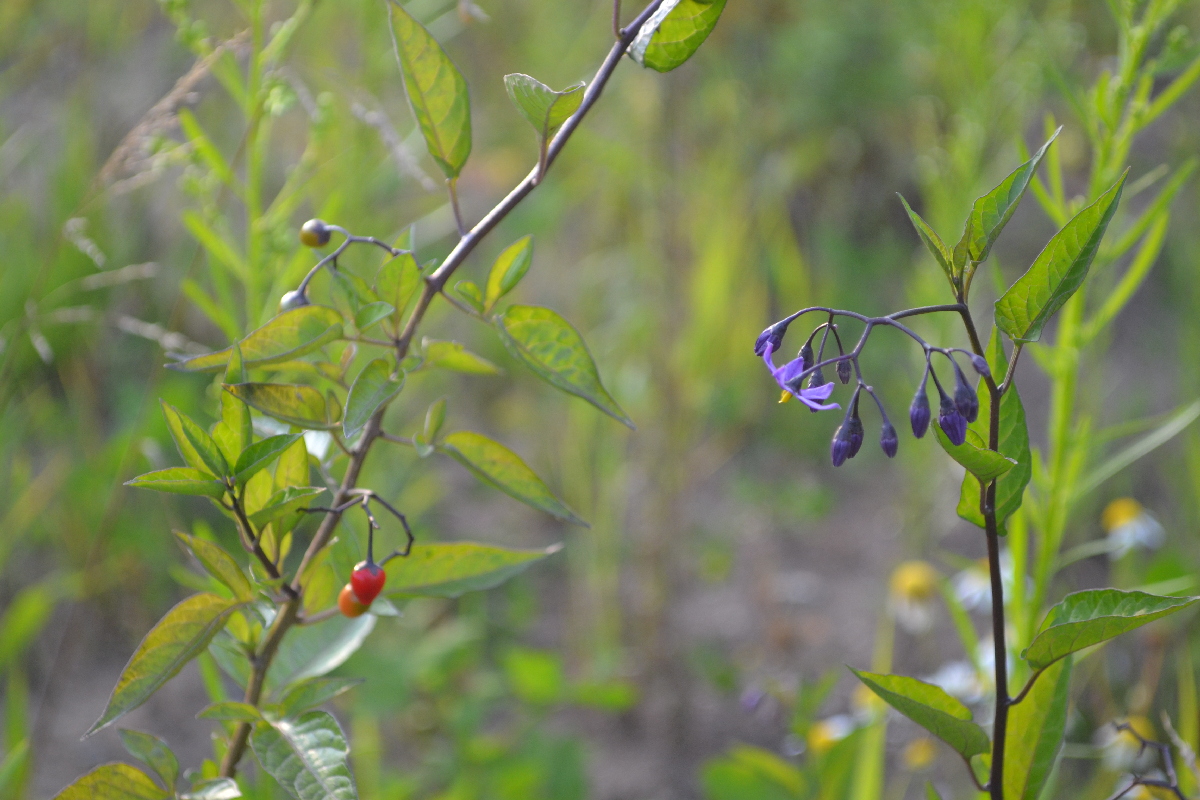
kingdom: Plantae
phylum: Tracheophyta
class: Magnoliopsida
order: Solanales
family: Solanaceae
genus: Solanum
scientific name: Solanum dulcamara
